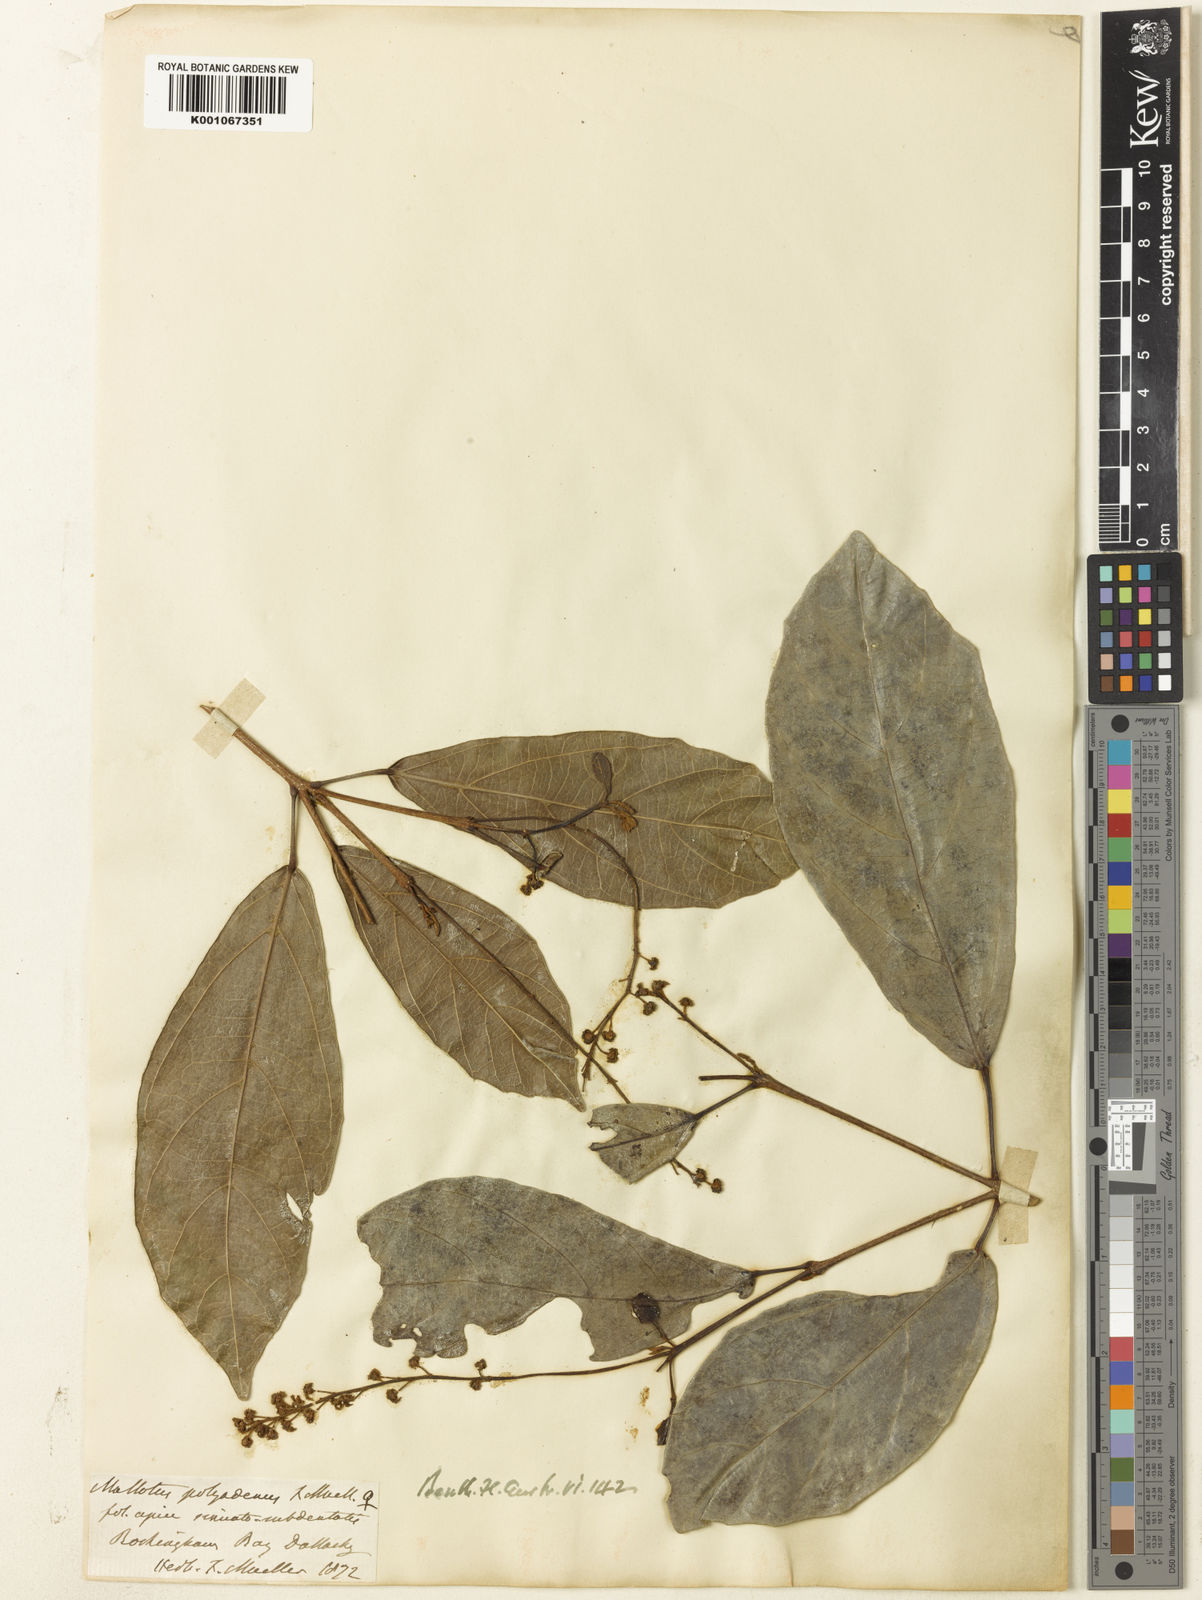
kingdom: Plantae
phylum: Tracheophyta
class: Magnoliopsida
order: Malpighiales
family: Euphorbiaceae
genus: Mallotus
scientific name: Mallotus polyadenos
